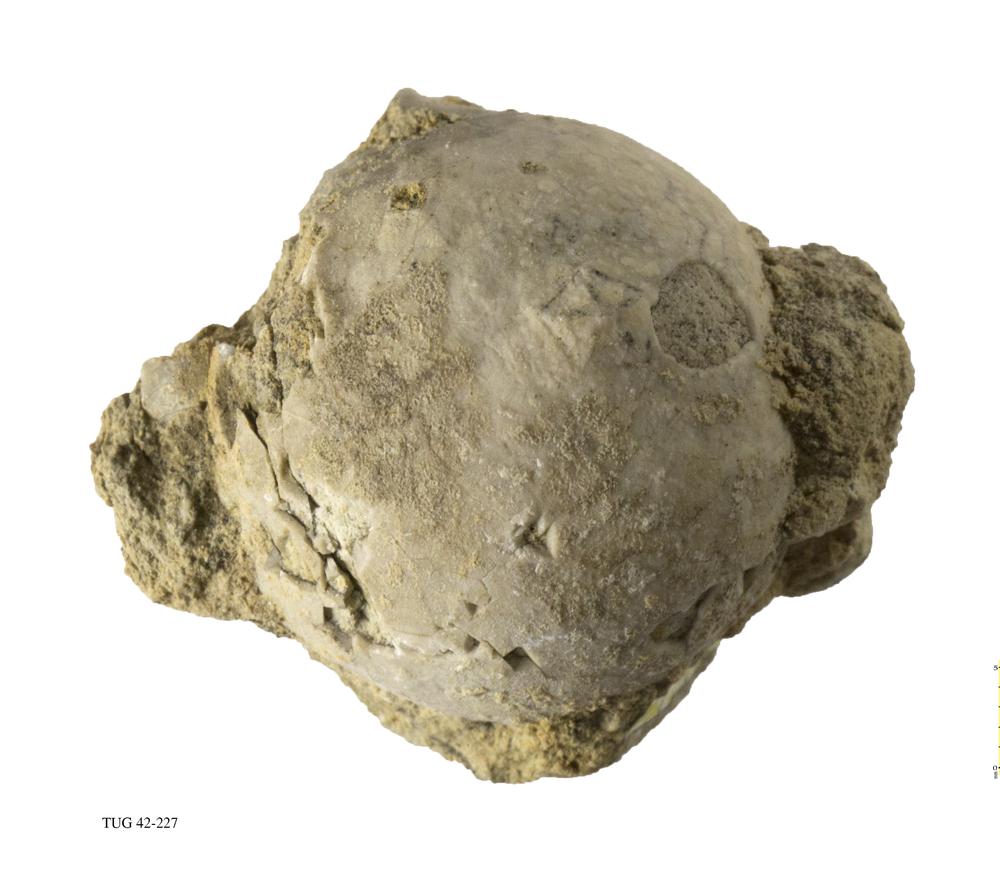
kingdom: Animalia
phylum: Echinodermata
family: Echinosphaeritidae
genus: Echinosphaerites
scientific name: Echinosphaerites Echinus aurantium
